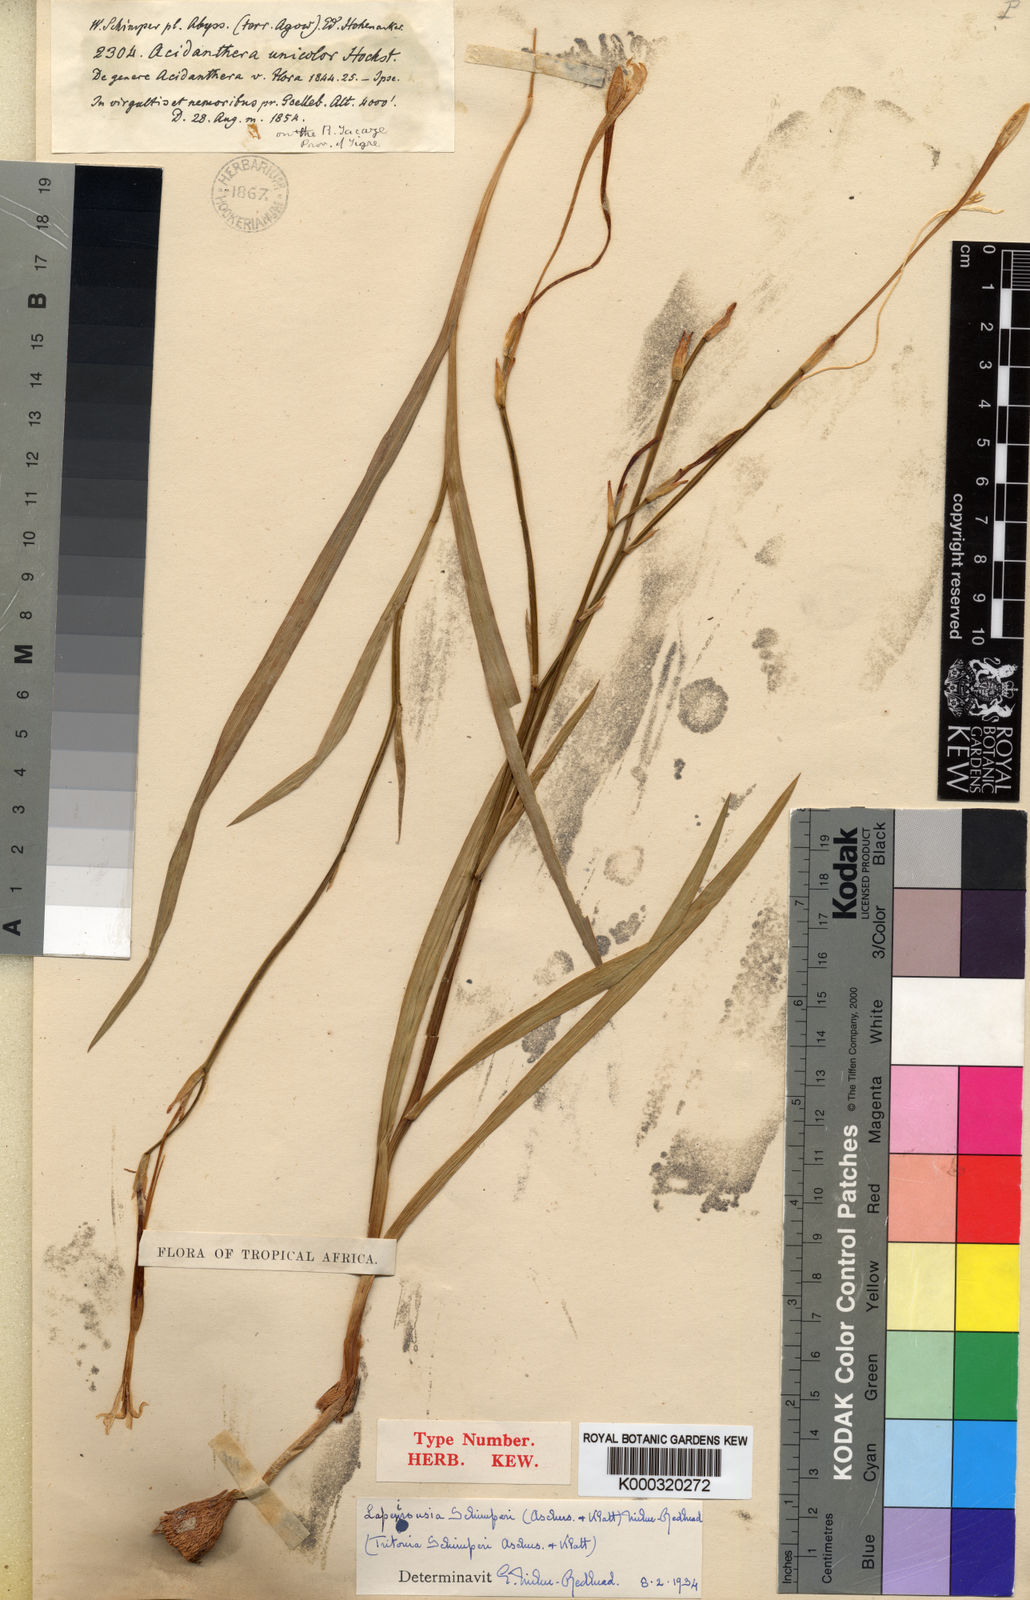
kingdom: Plantae
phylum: Tracheophyta
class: Liliopsida
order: Asparagales
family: Iridaceae
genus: Afrosolen
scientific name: Afrosolen schimperi
